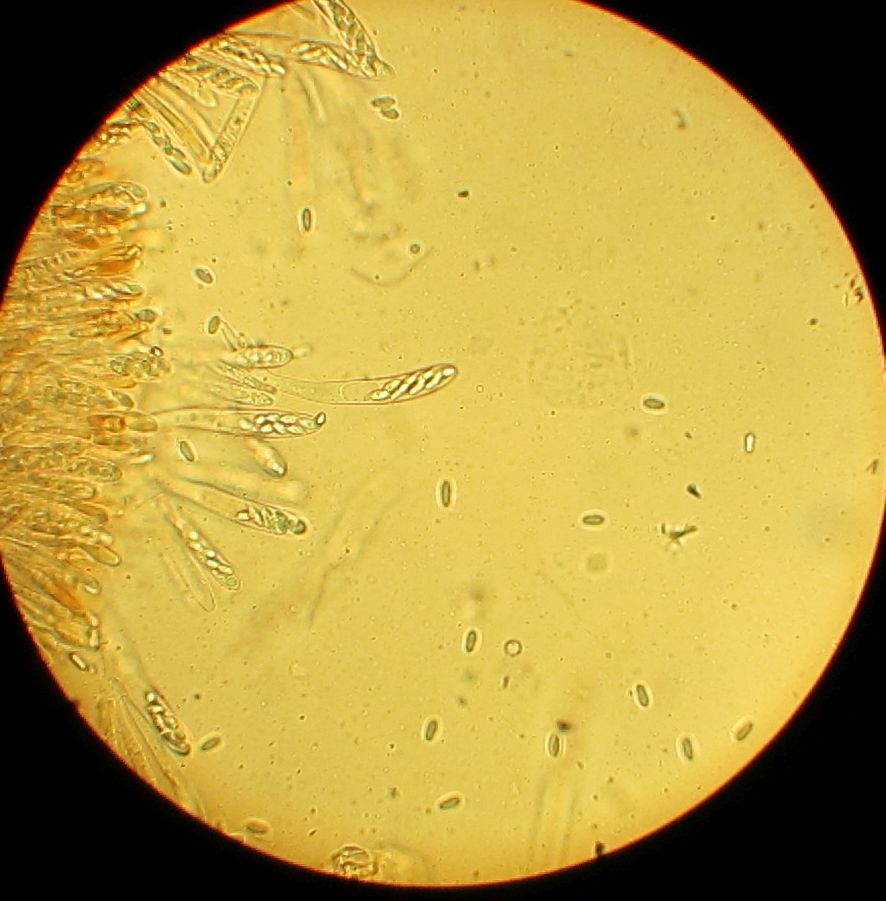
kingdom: Fungi
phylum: Ascomycota
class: Leotiomycetes
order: Helotiales
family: Cenangiaceae
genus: Trochila
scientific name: Trochila laurocerasi
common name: kirsebær-lågskive
